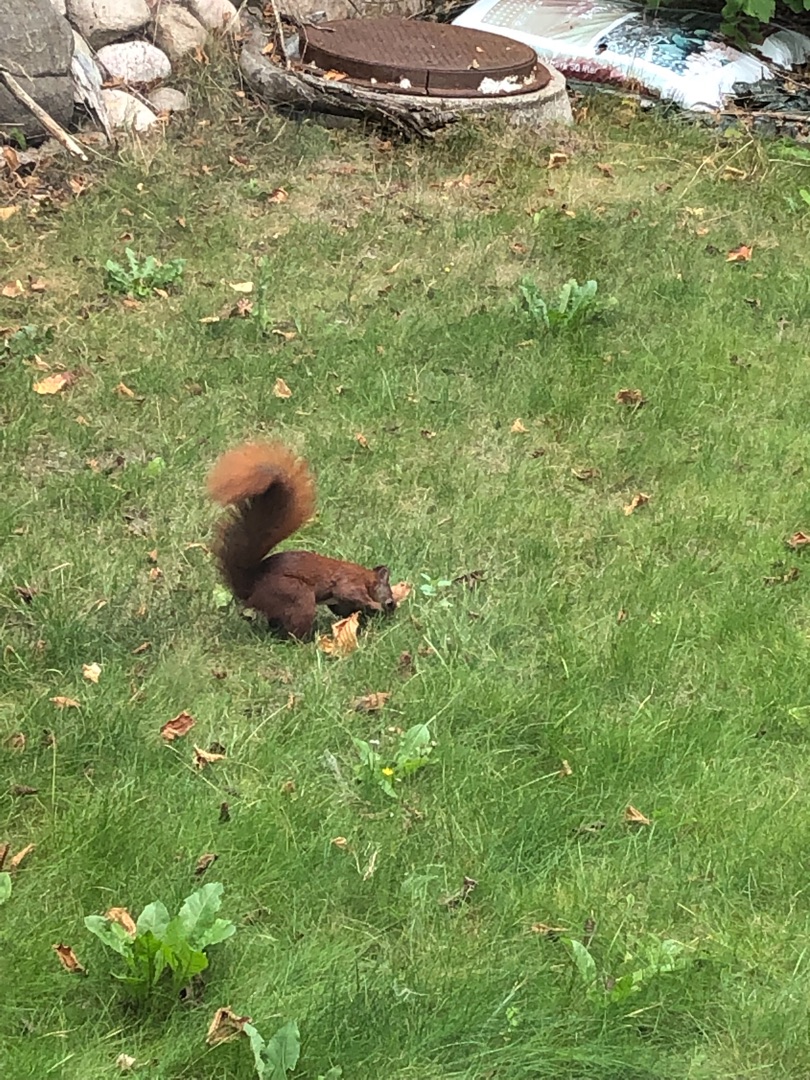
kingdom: Animalia
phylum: Chordata
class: Mammalia
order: Rodentia
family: Sciuridae
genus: Sciurus
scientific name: Sciurus vulgaris
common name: Egern
